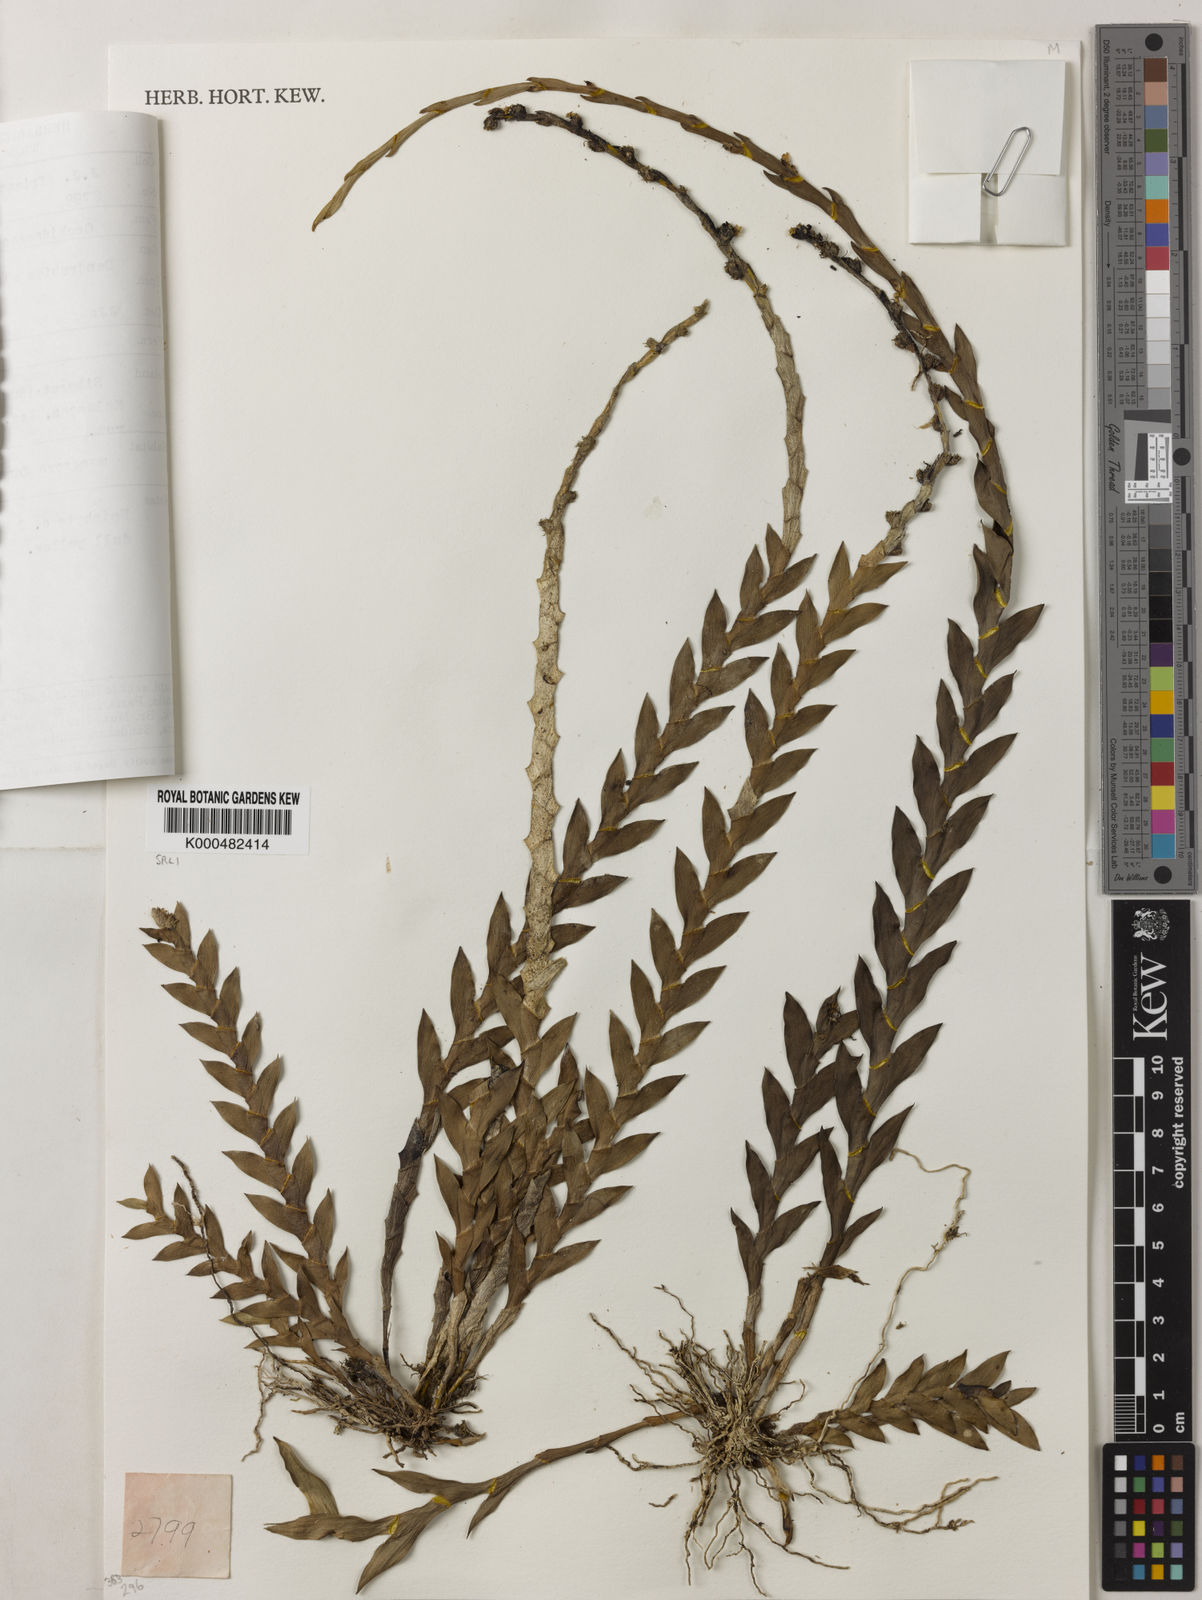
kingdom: Plantae
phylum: Tracheophyta
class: Liliopsida
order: Asparagales
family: Orchidaceae
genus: Dendrobium
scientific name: Dendrobium aloifolium
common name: Aloe-like dendrobium
